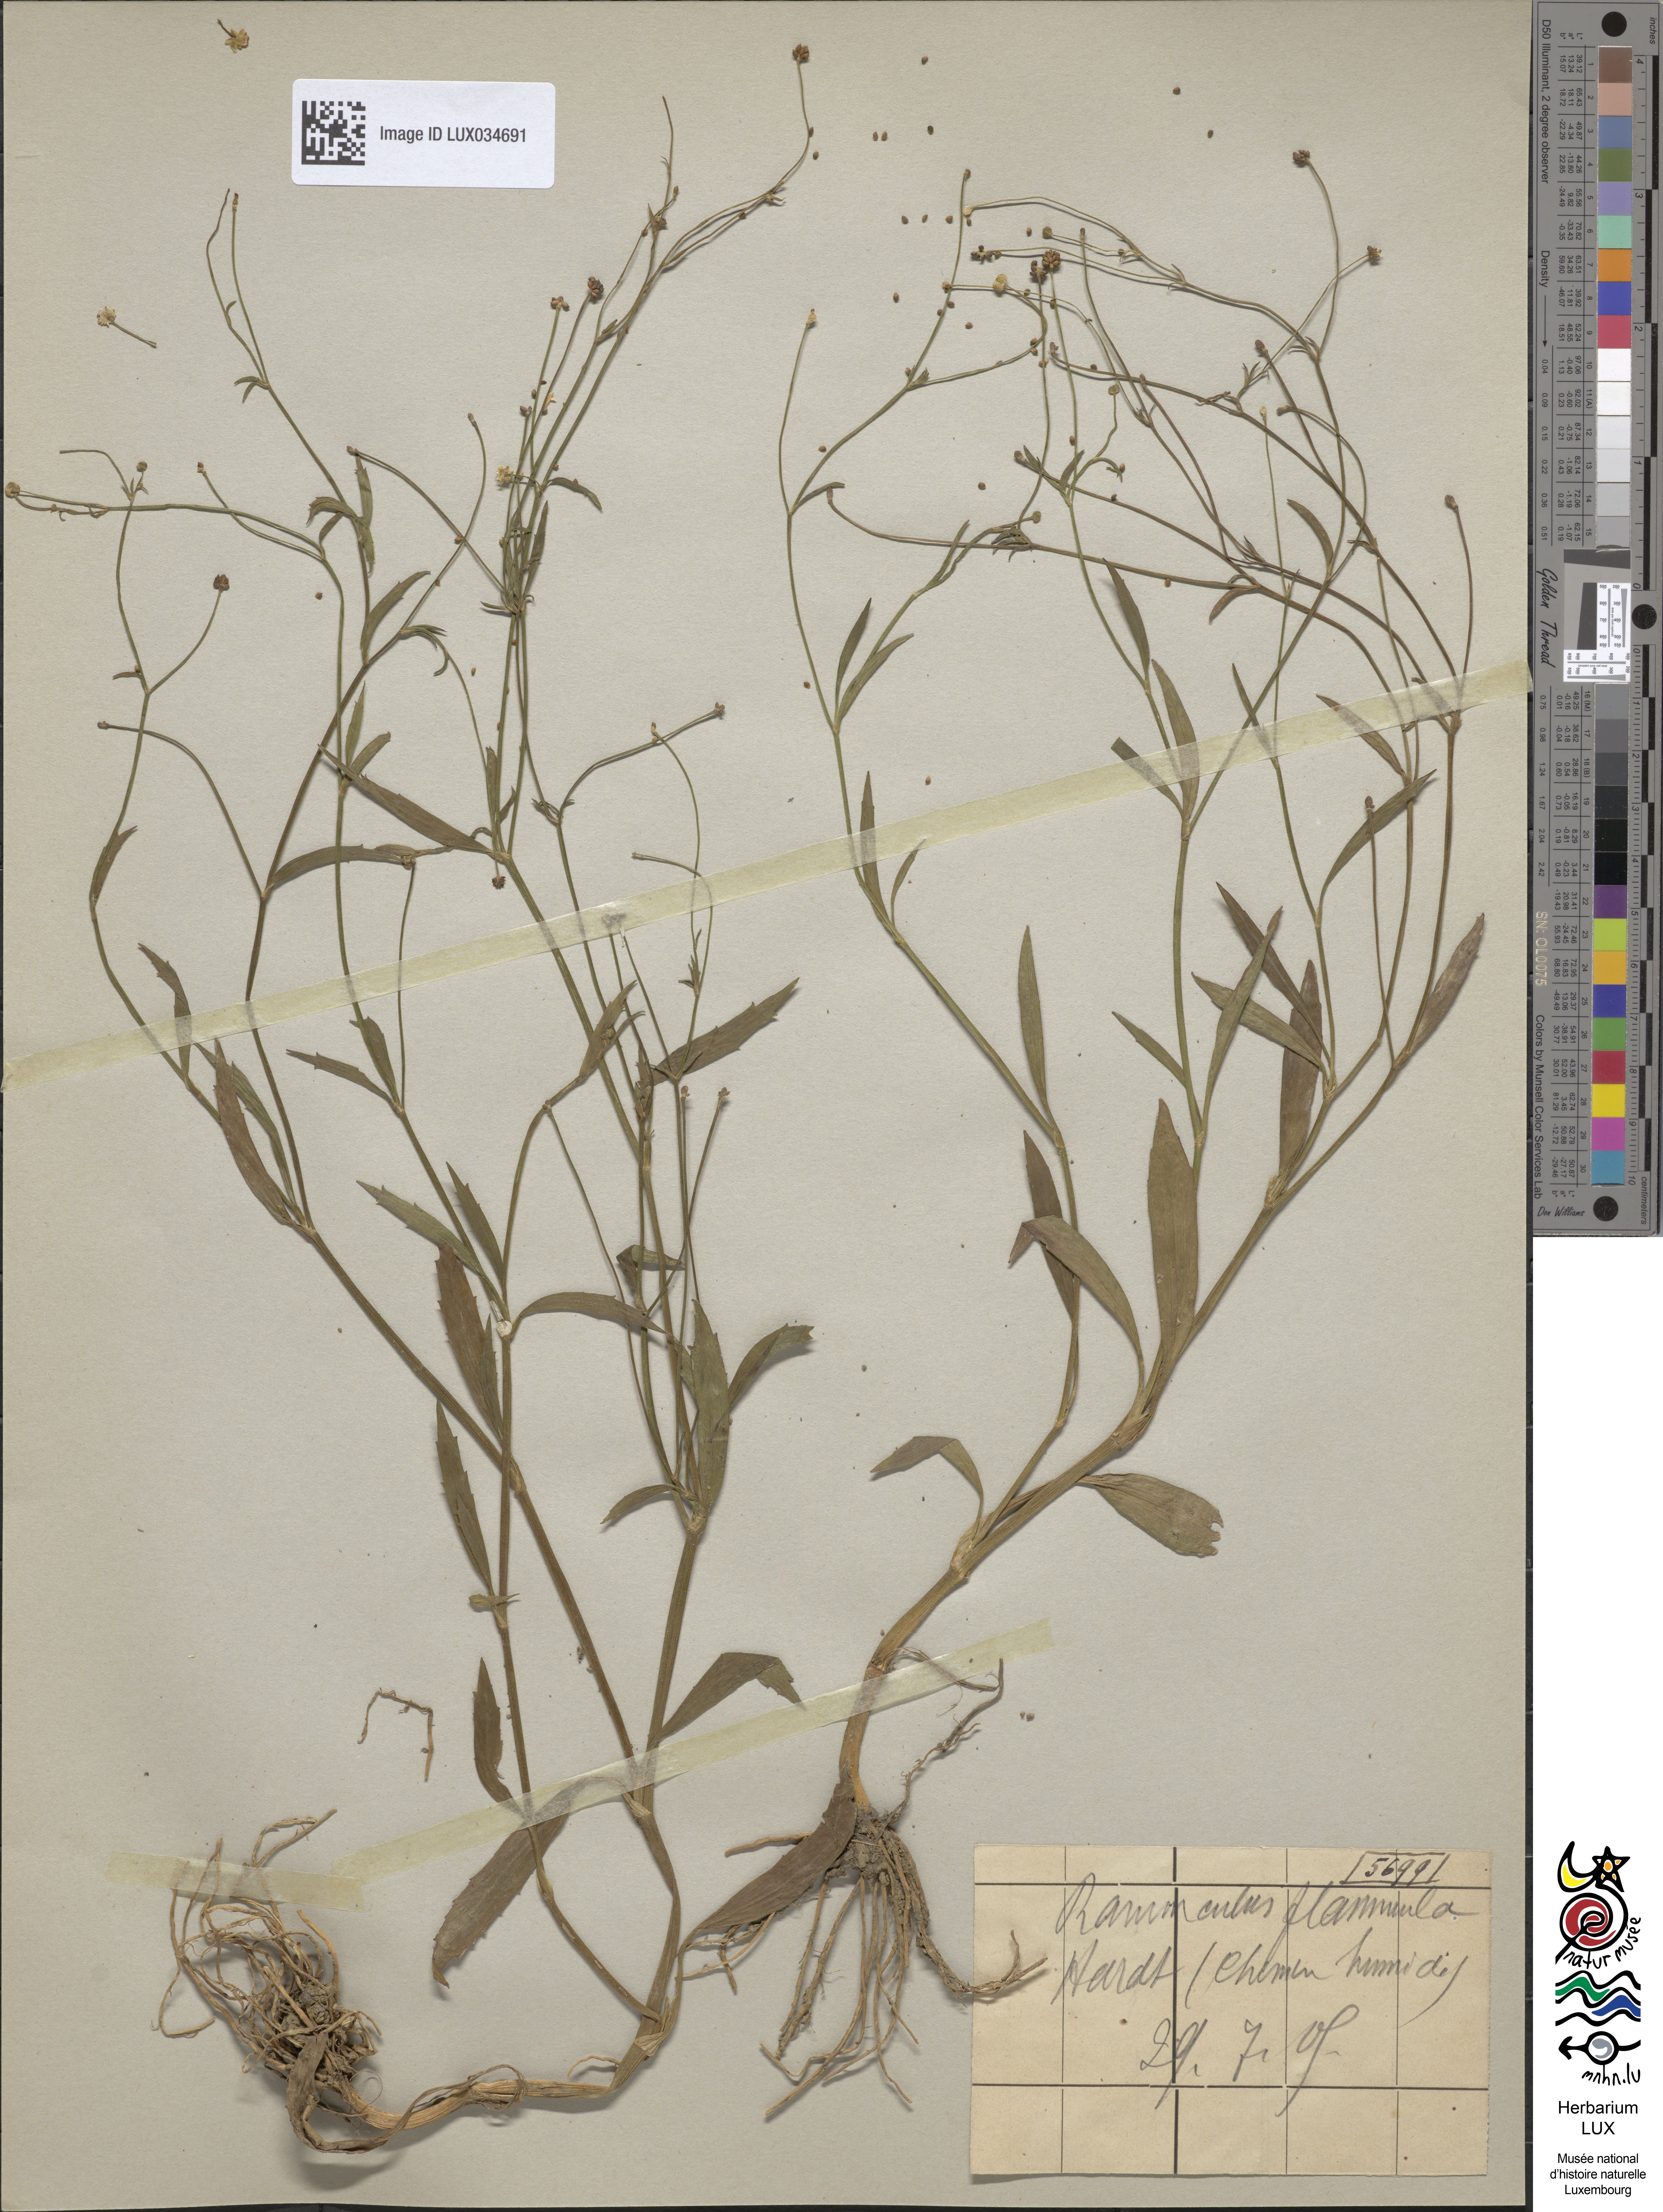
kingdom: Plantae
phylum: Tracheophyta
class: Magnoliopsida
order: Ranunculales
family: Ranunculaceae
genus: Ranunculus
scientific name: Ranunculus flammula
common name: Lesser spearwort
